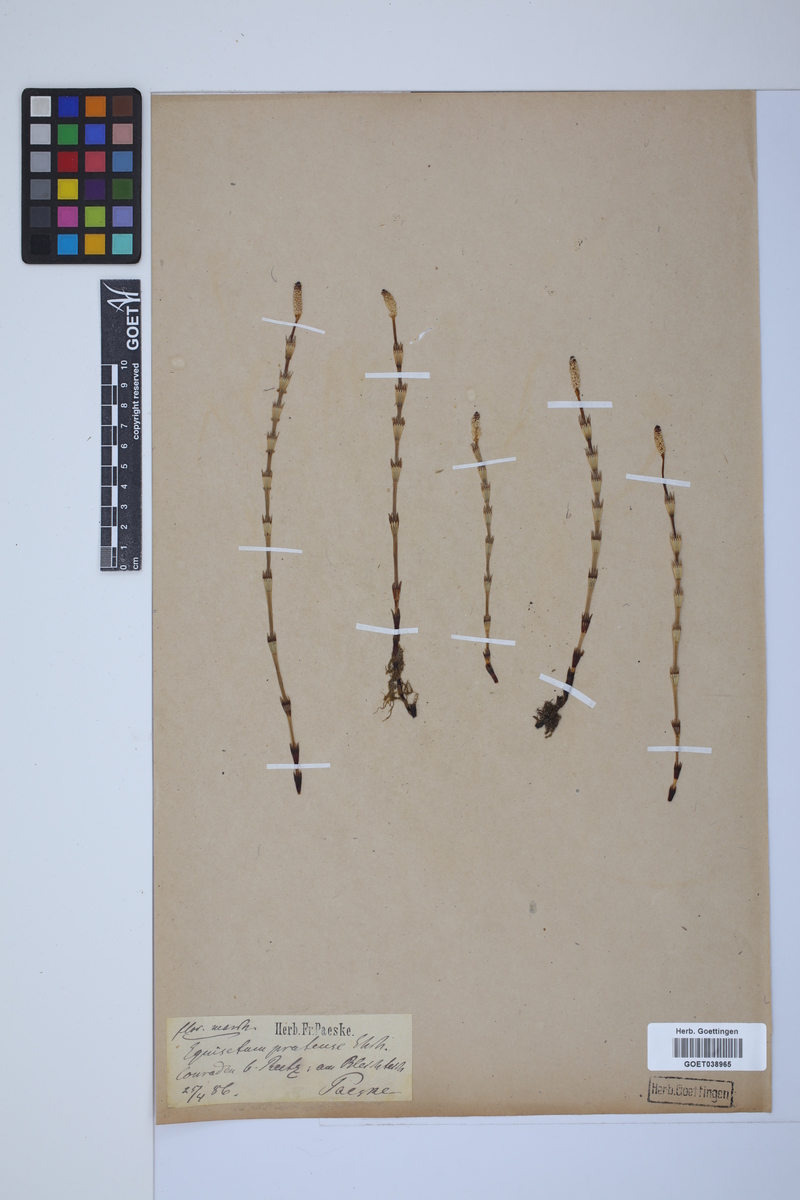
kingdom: Plantae
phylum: Tracheophyta
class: Polypodiopsida
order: Equisetales
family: Equisetaceae
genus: Equisetum
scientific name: Equisetum pratense
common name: Meadow horsetail
